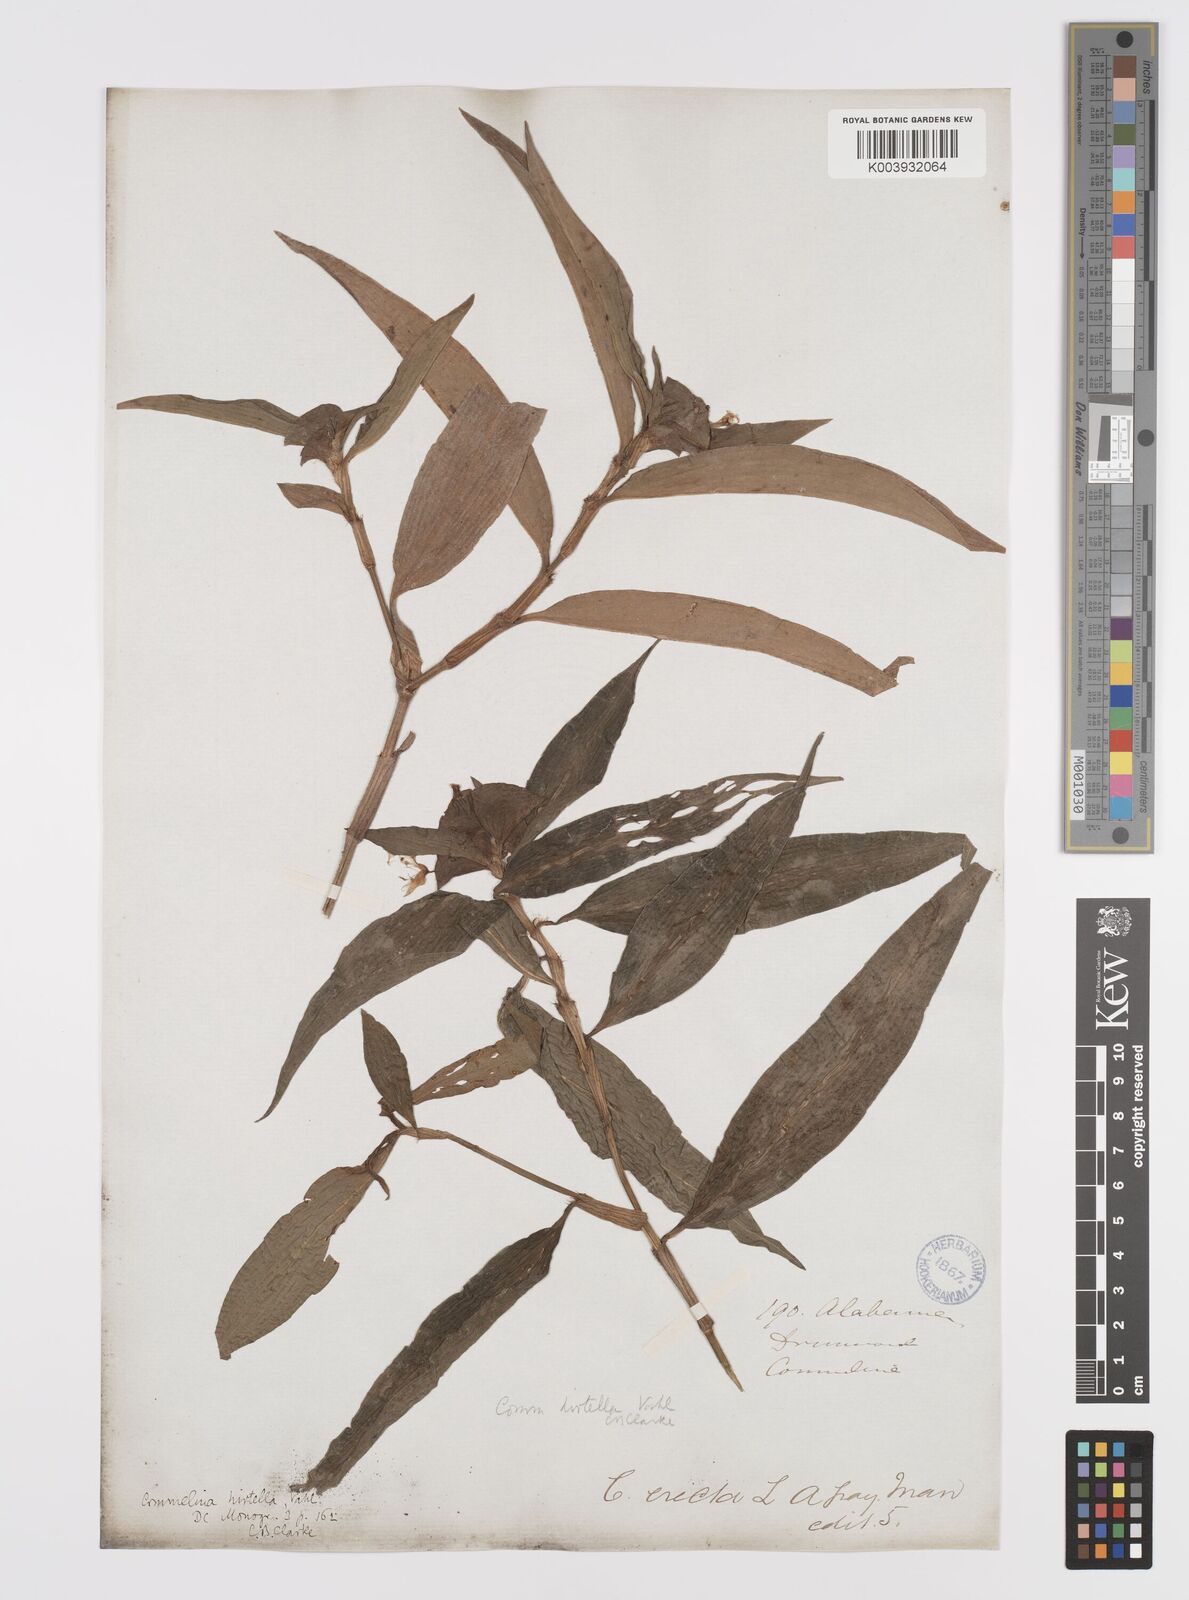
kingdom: Plantae
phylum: Tracheophyta
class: Liliopsida
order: Commelinales
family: Commelinaceae
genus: Commelina
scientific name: Commelina virginica
